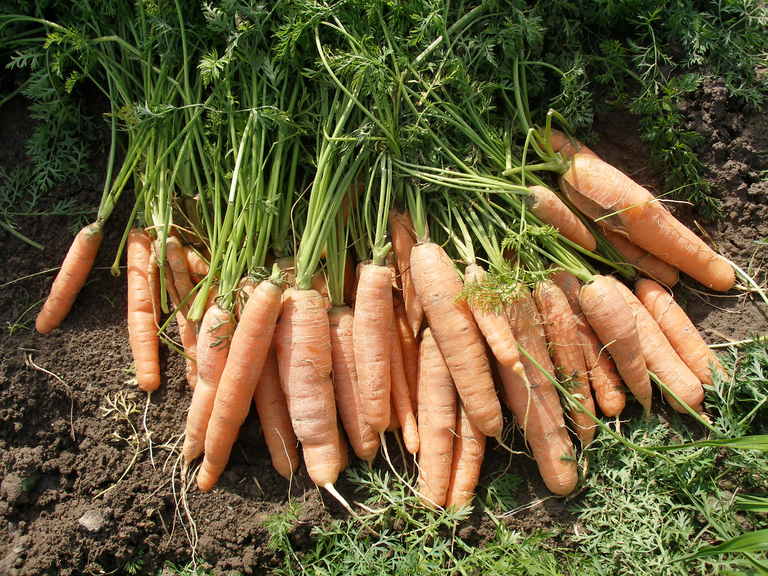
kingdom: Plantae
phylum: Tracheophyta
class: Magnoliopsida
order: Apiales
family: Apiaceae
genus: Daucus
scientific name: Daucus carota
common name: Wild carrot
